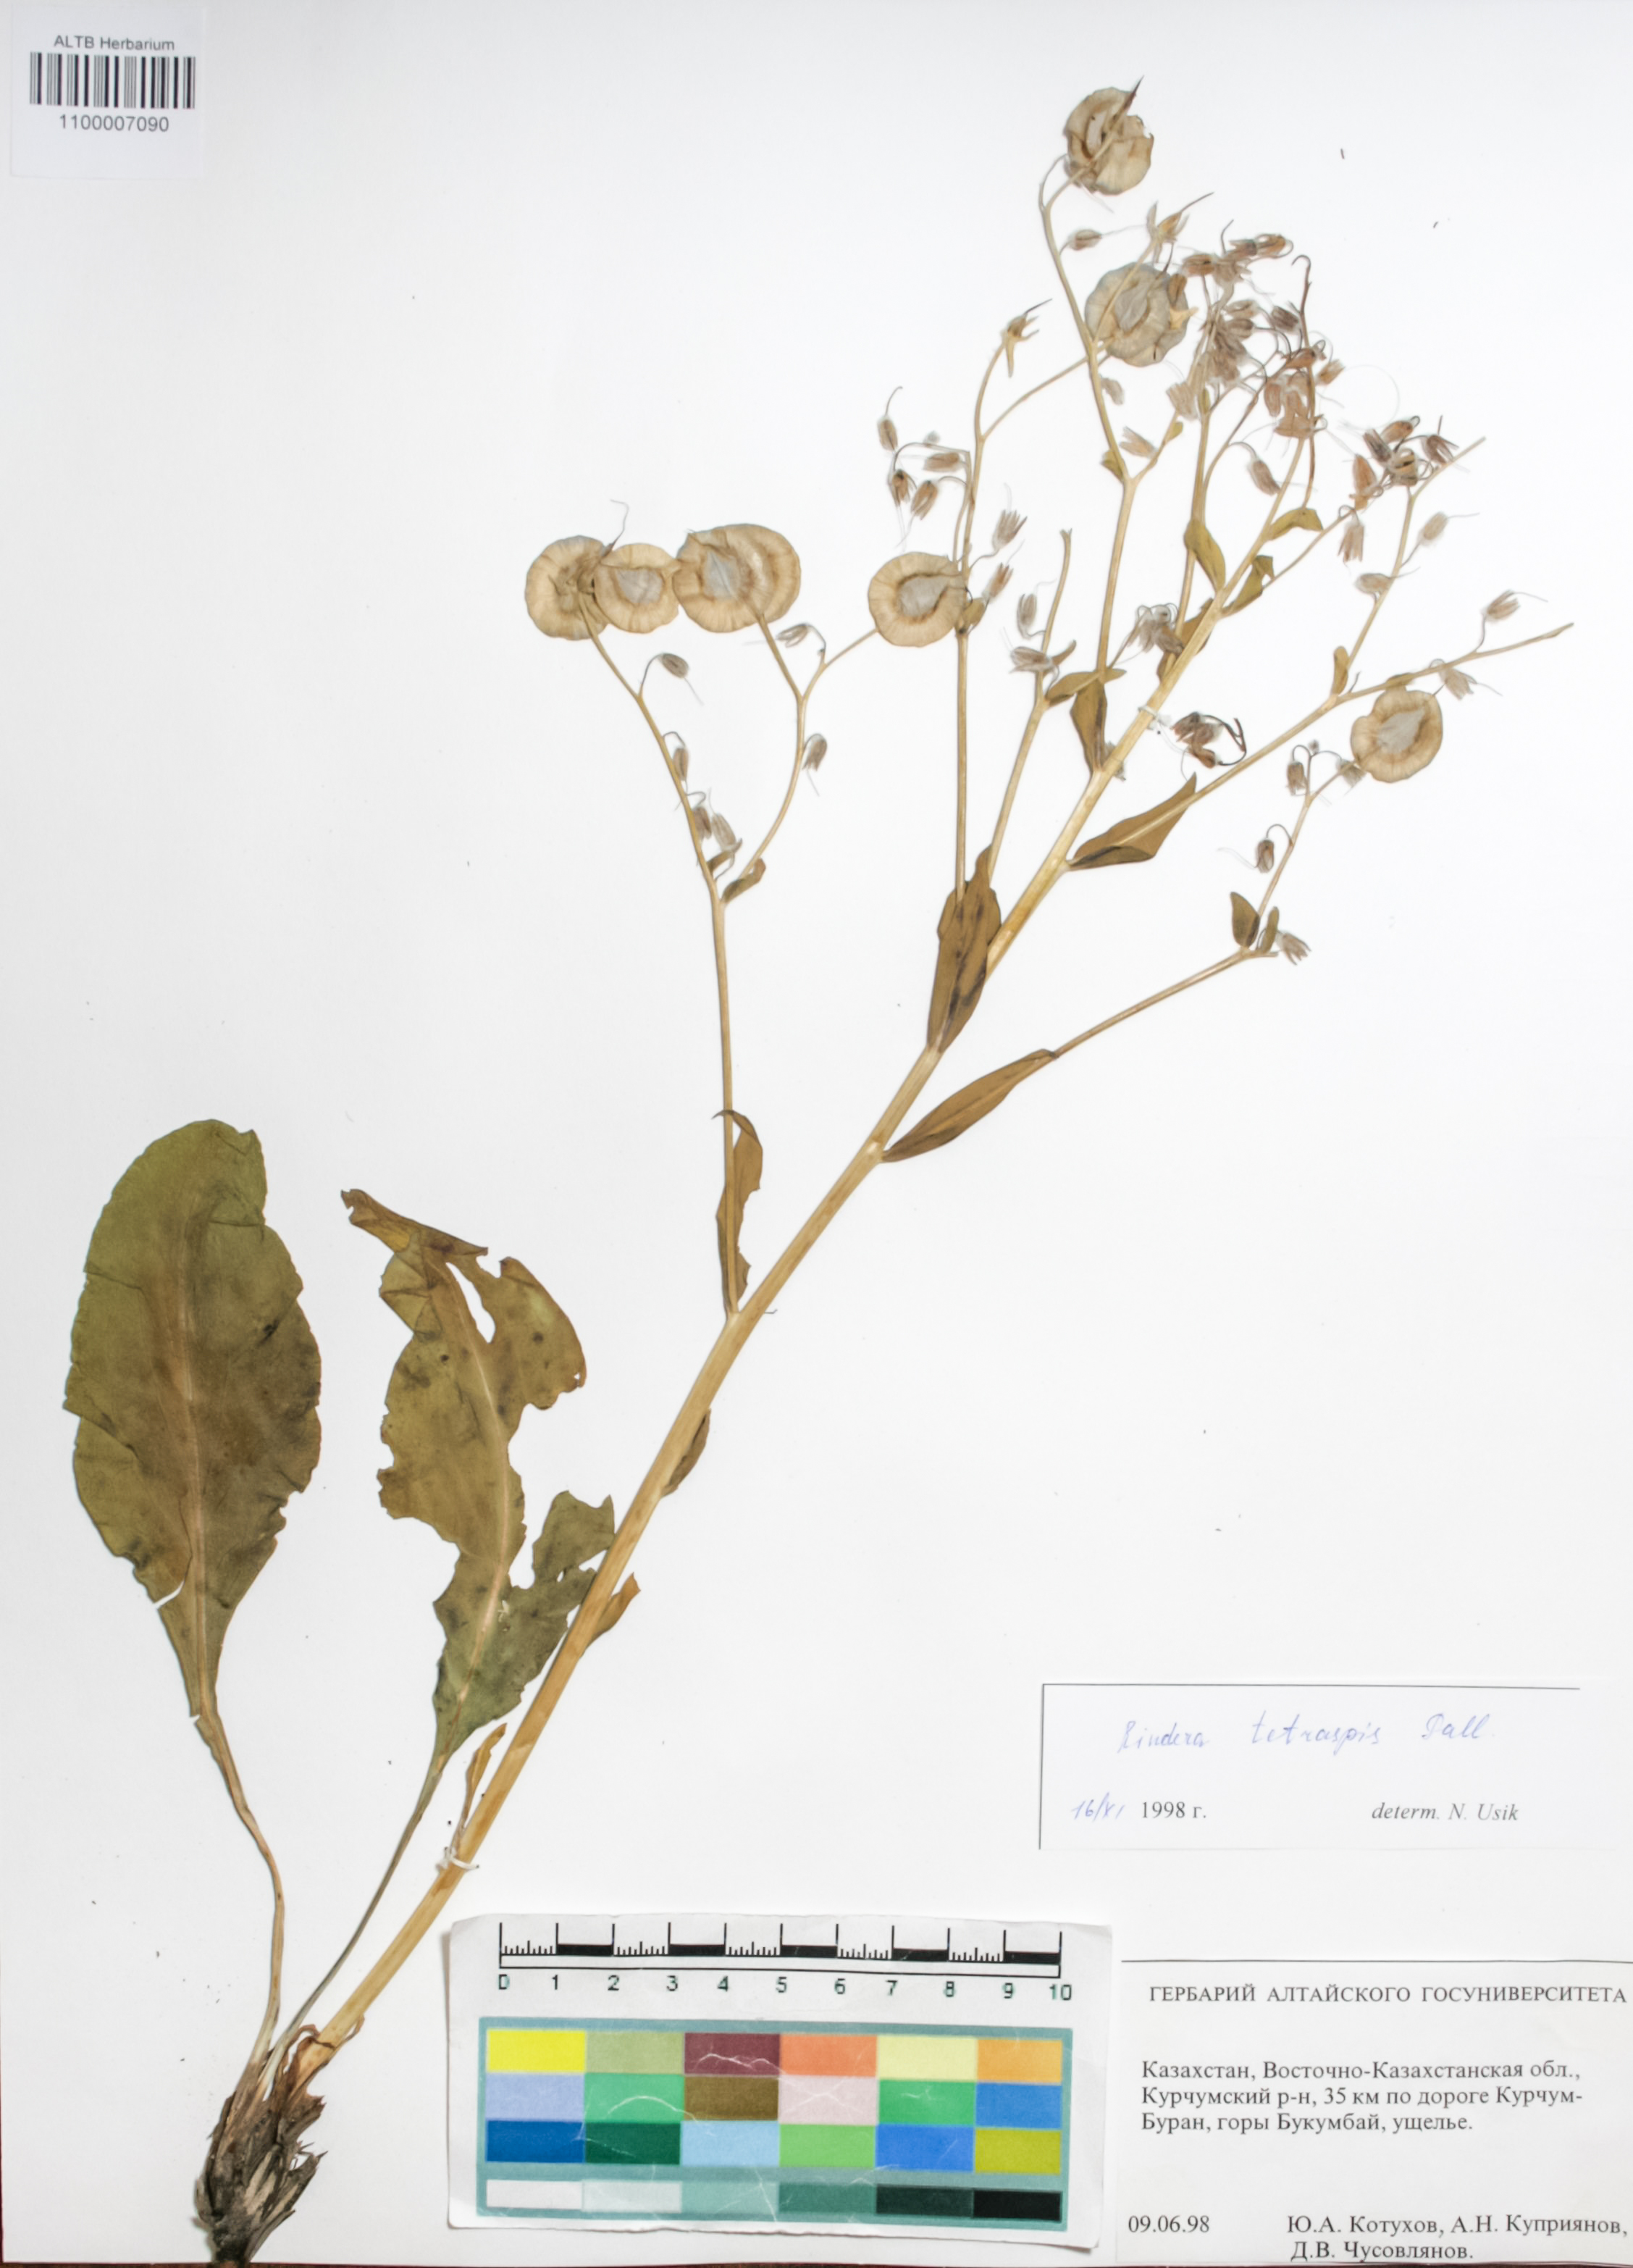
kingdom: Plantae
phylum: Tracheophyta
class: Magnoliopsida
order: Boraginales
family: Boraginaceae
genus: Rindera
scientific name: Rindera tetraspis
